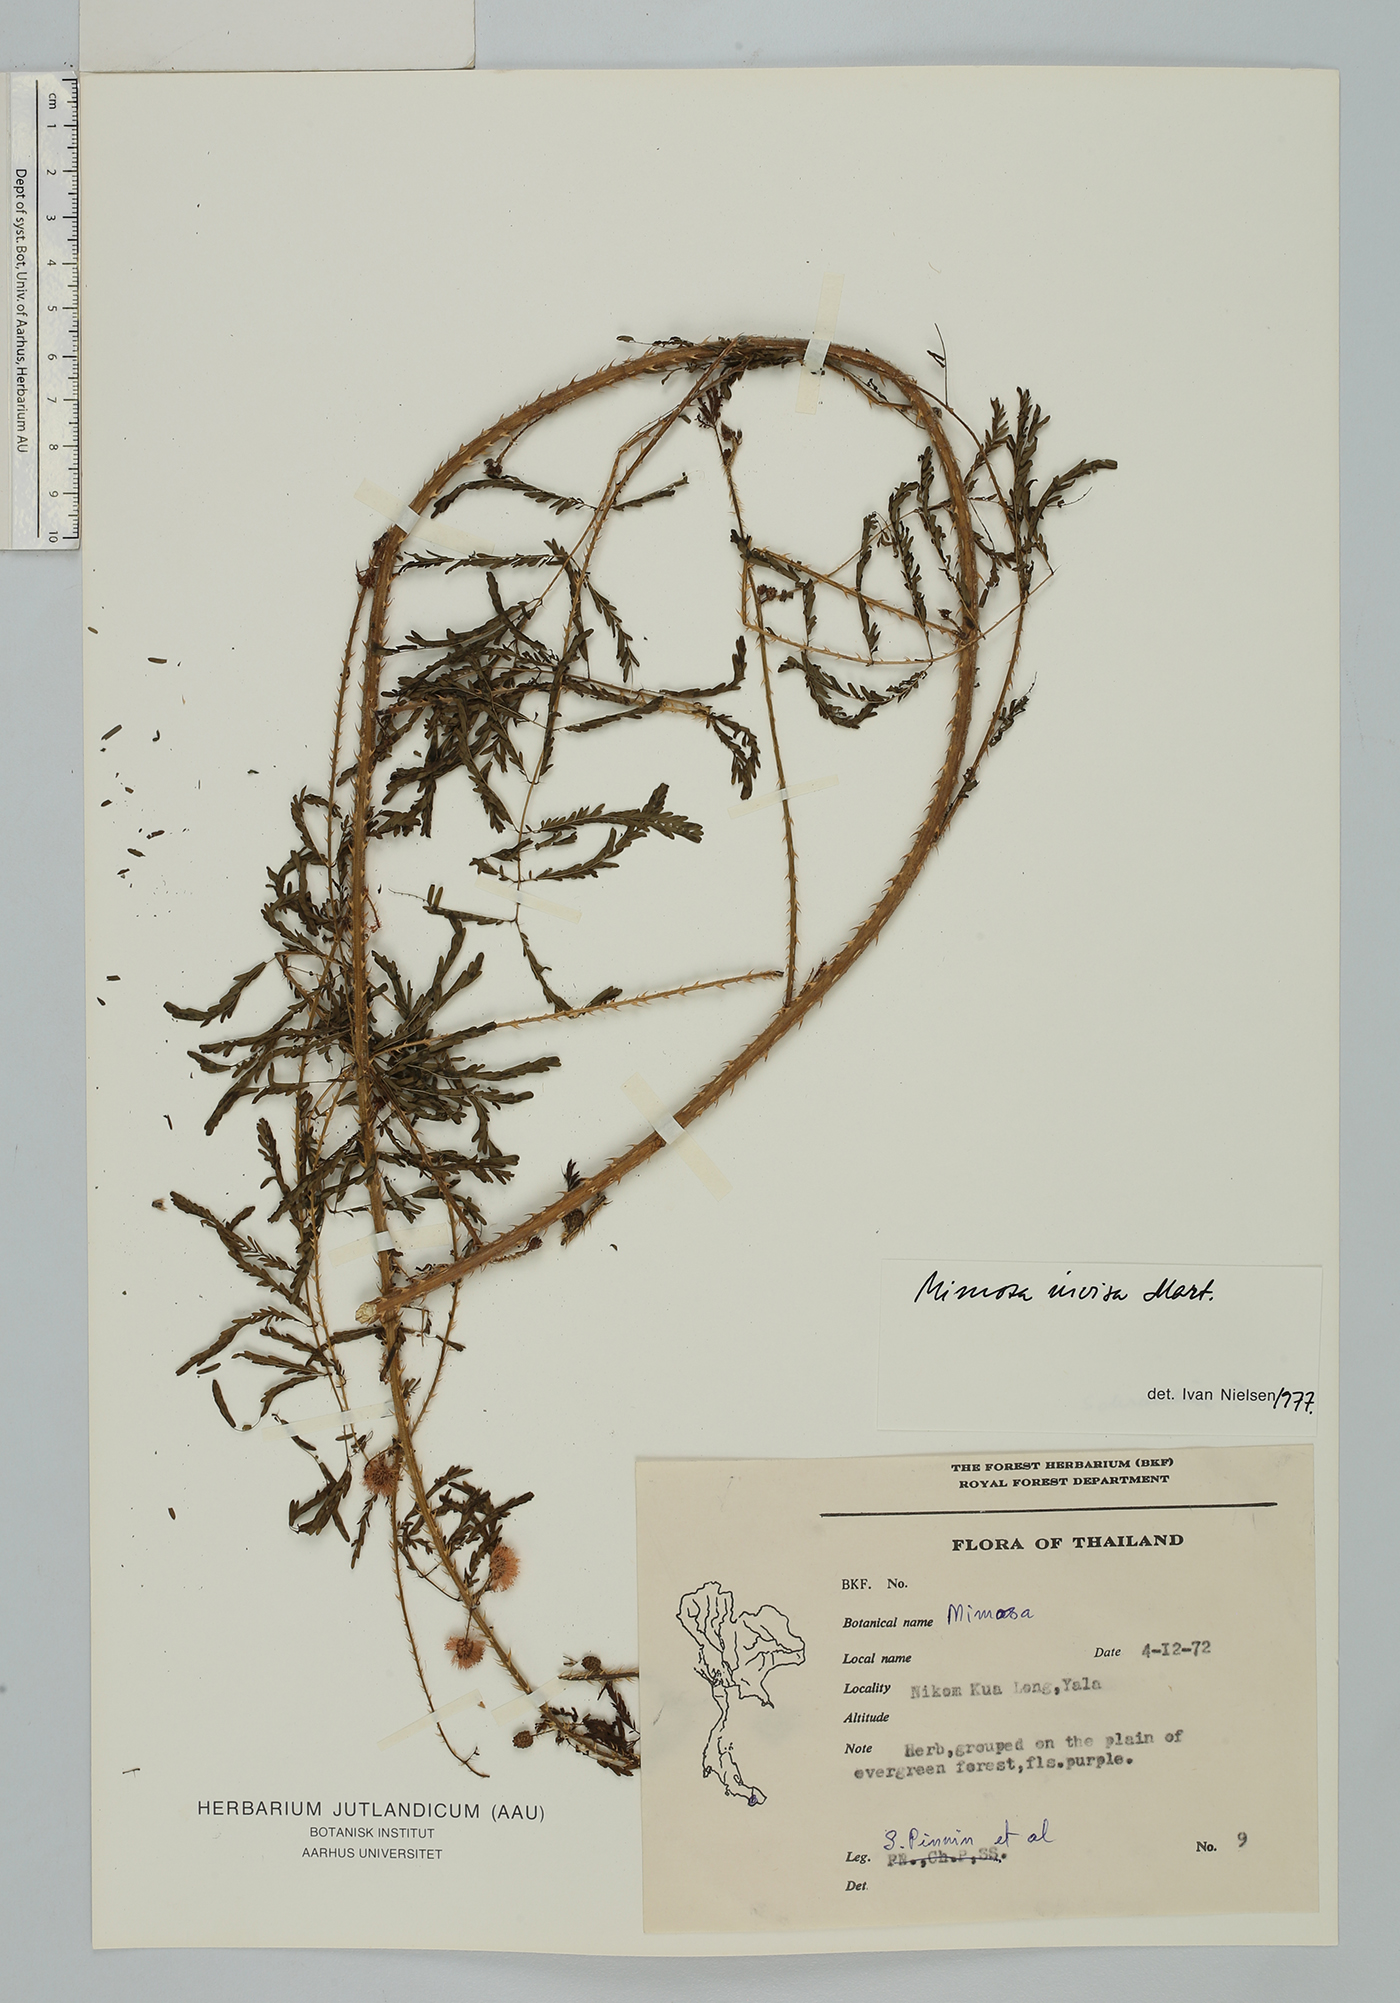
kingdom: Plantae
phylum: Tracheophyta
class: Magnoliopsida
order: Fabales
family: Fabaceae
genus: Mimosa
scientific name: Mimosa diplotricha
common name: Giant sensitive-plant
